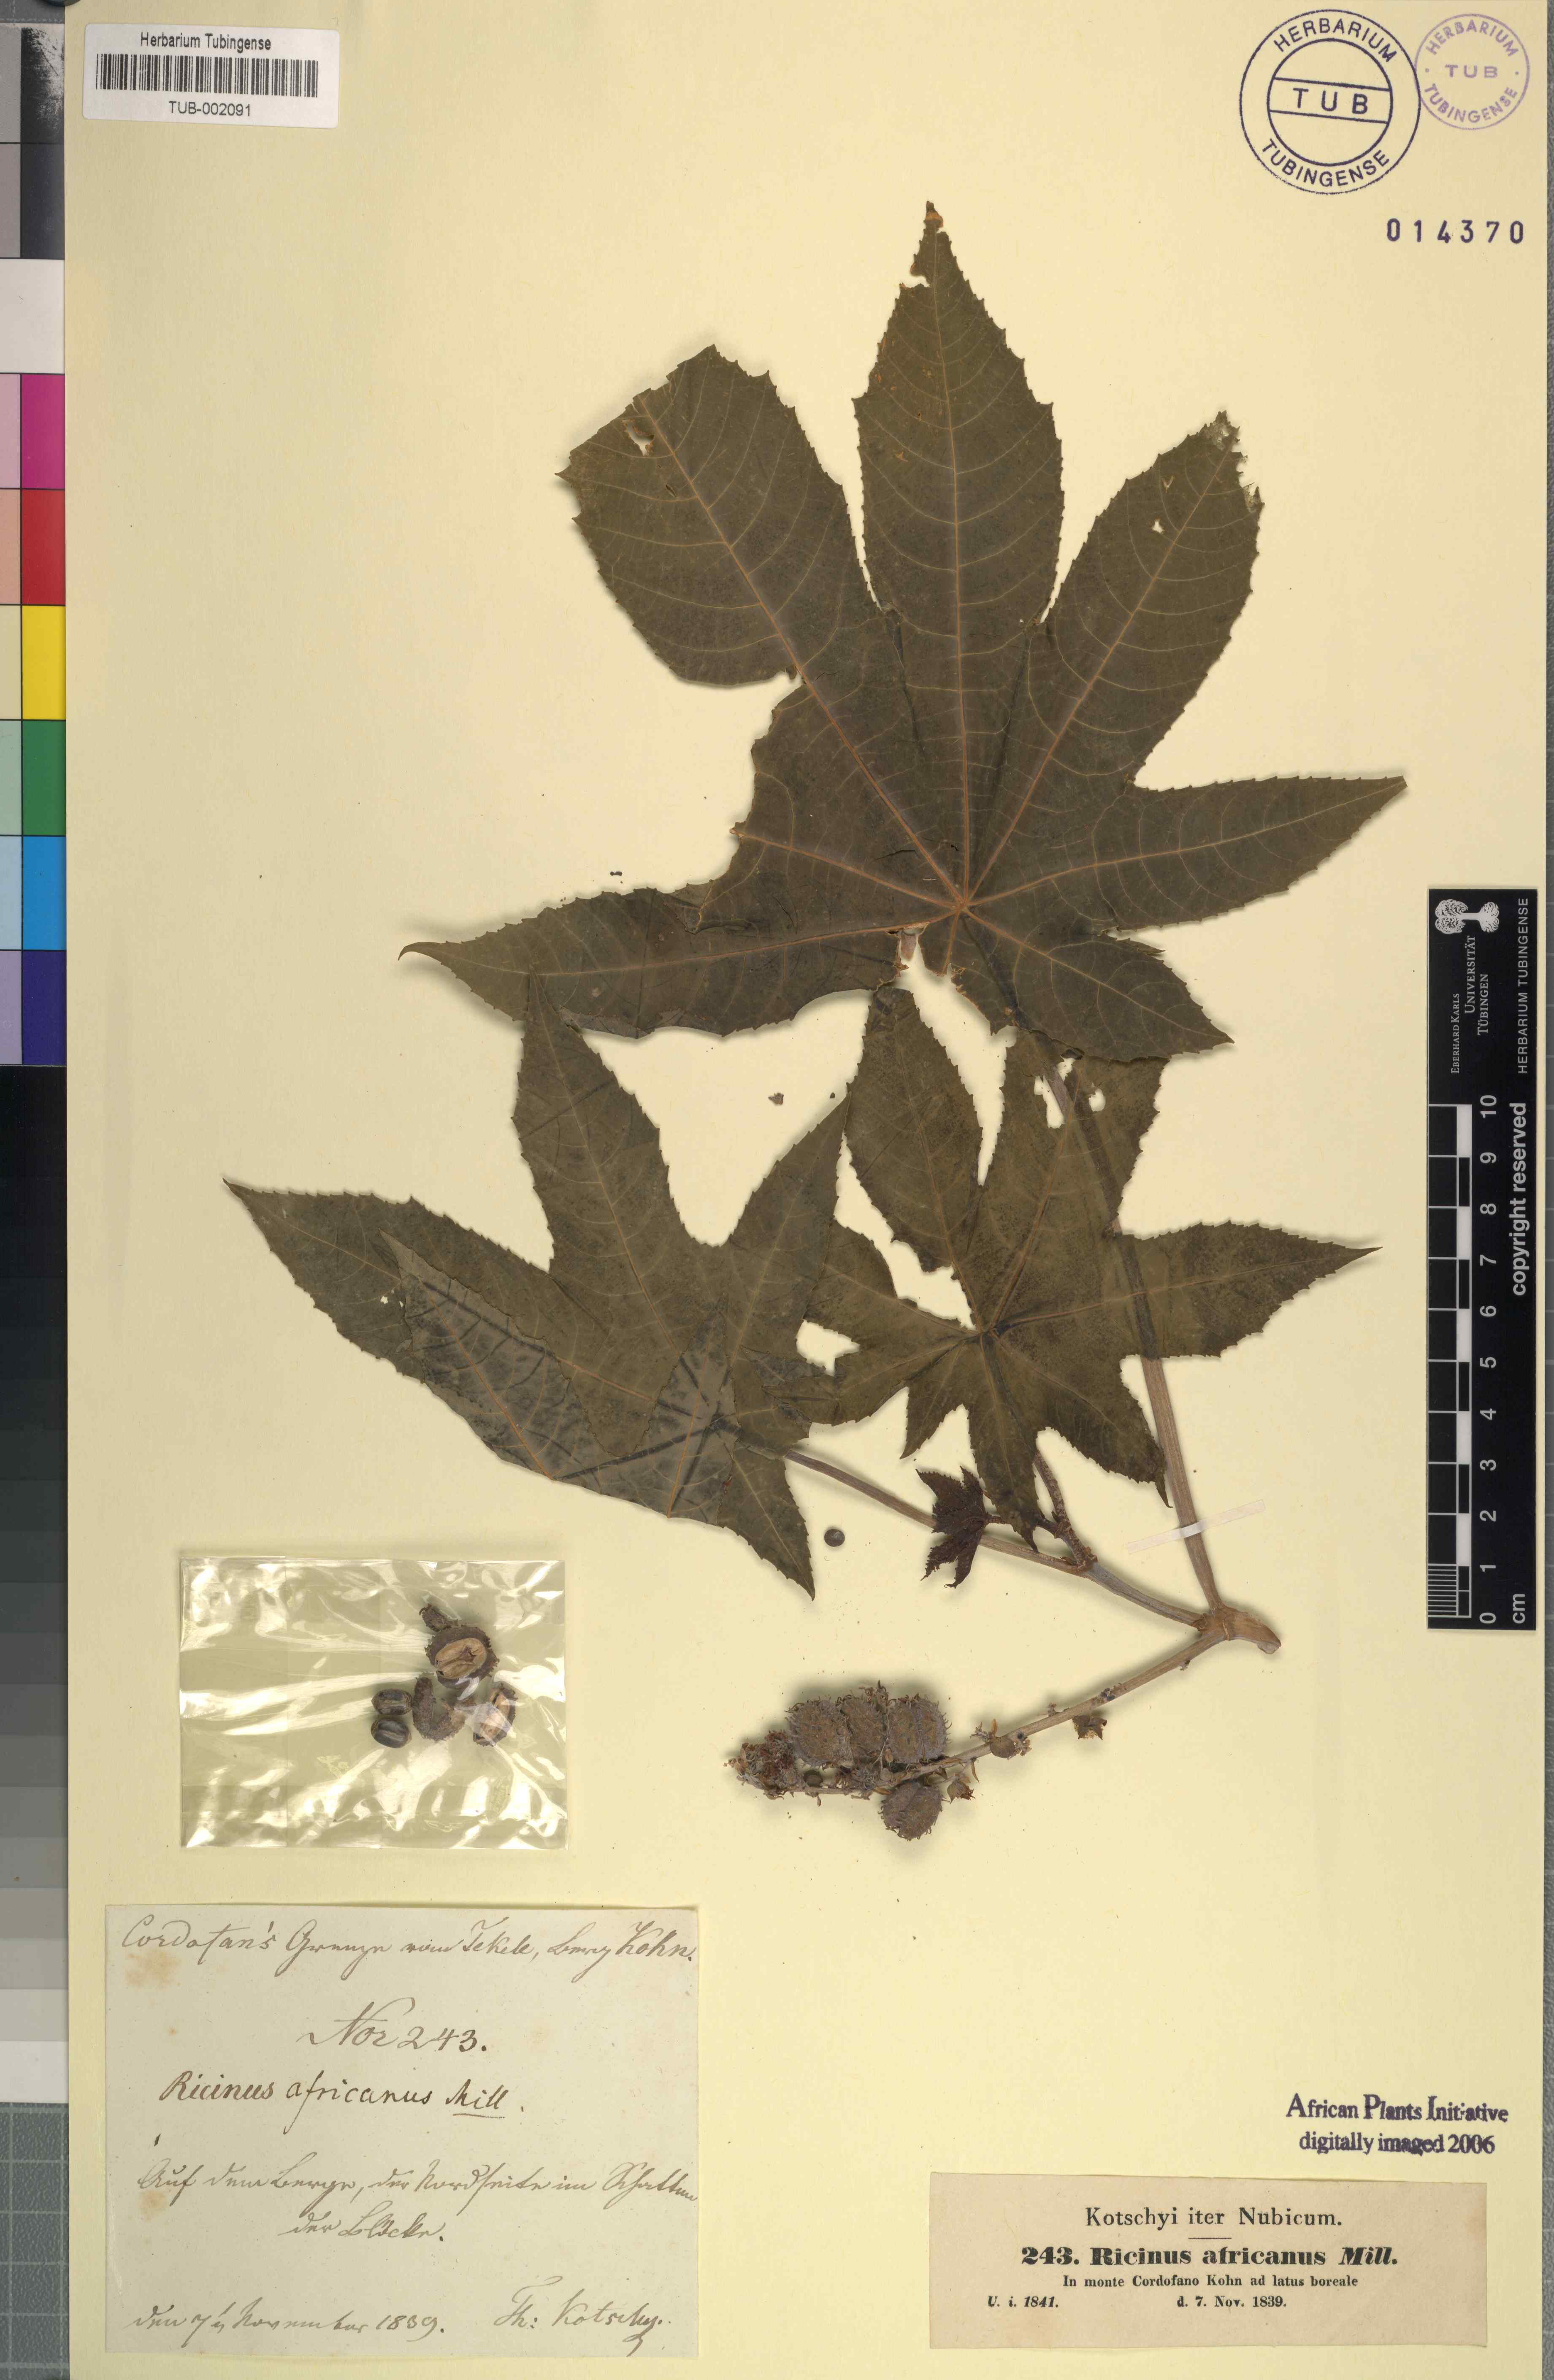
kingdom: Plantae
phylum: Tracheophyta
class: Magnoliopsida
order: Malpighiales
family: Euphorbiaceae
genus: Ricinus
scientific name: Ricinus communis
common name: Castor-oil-plant
